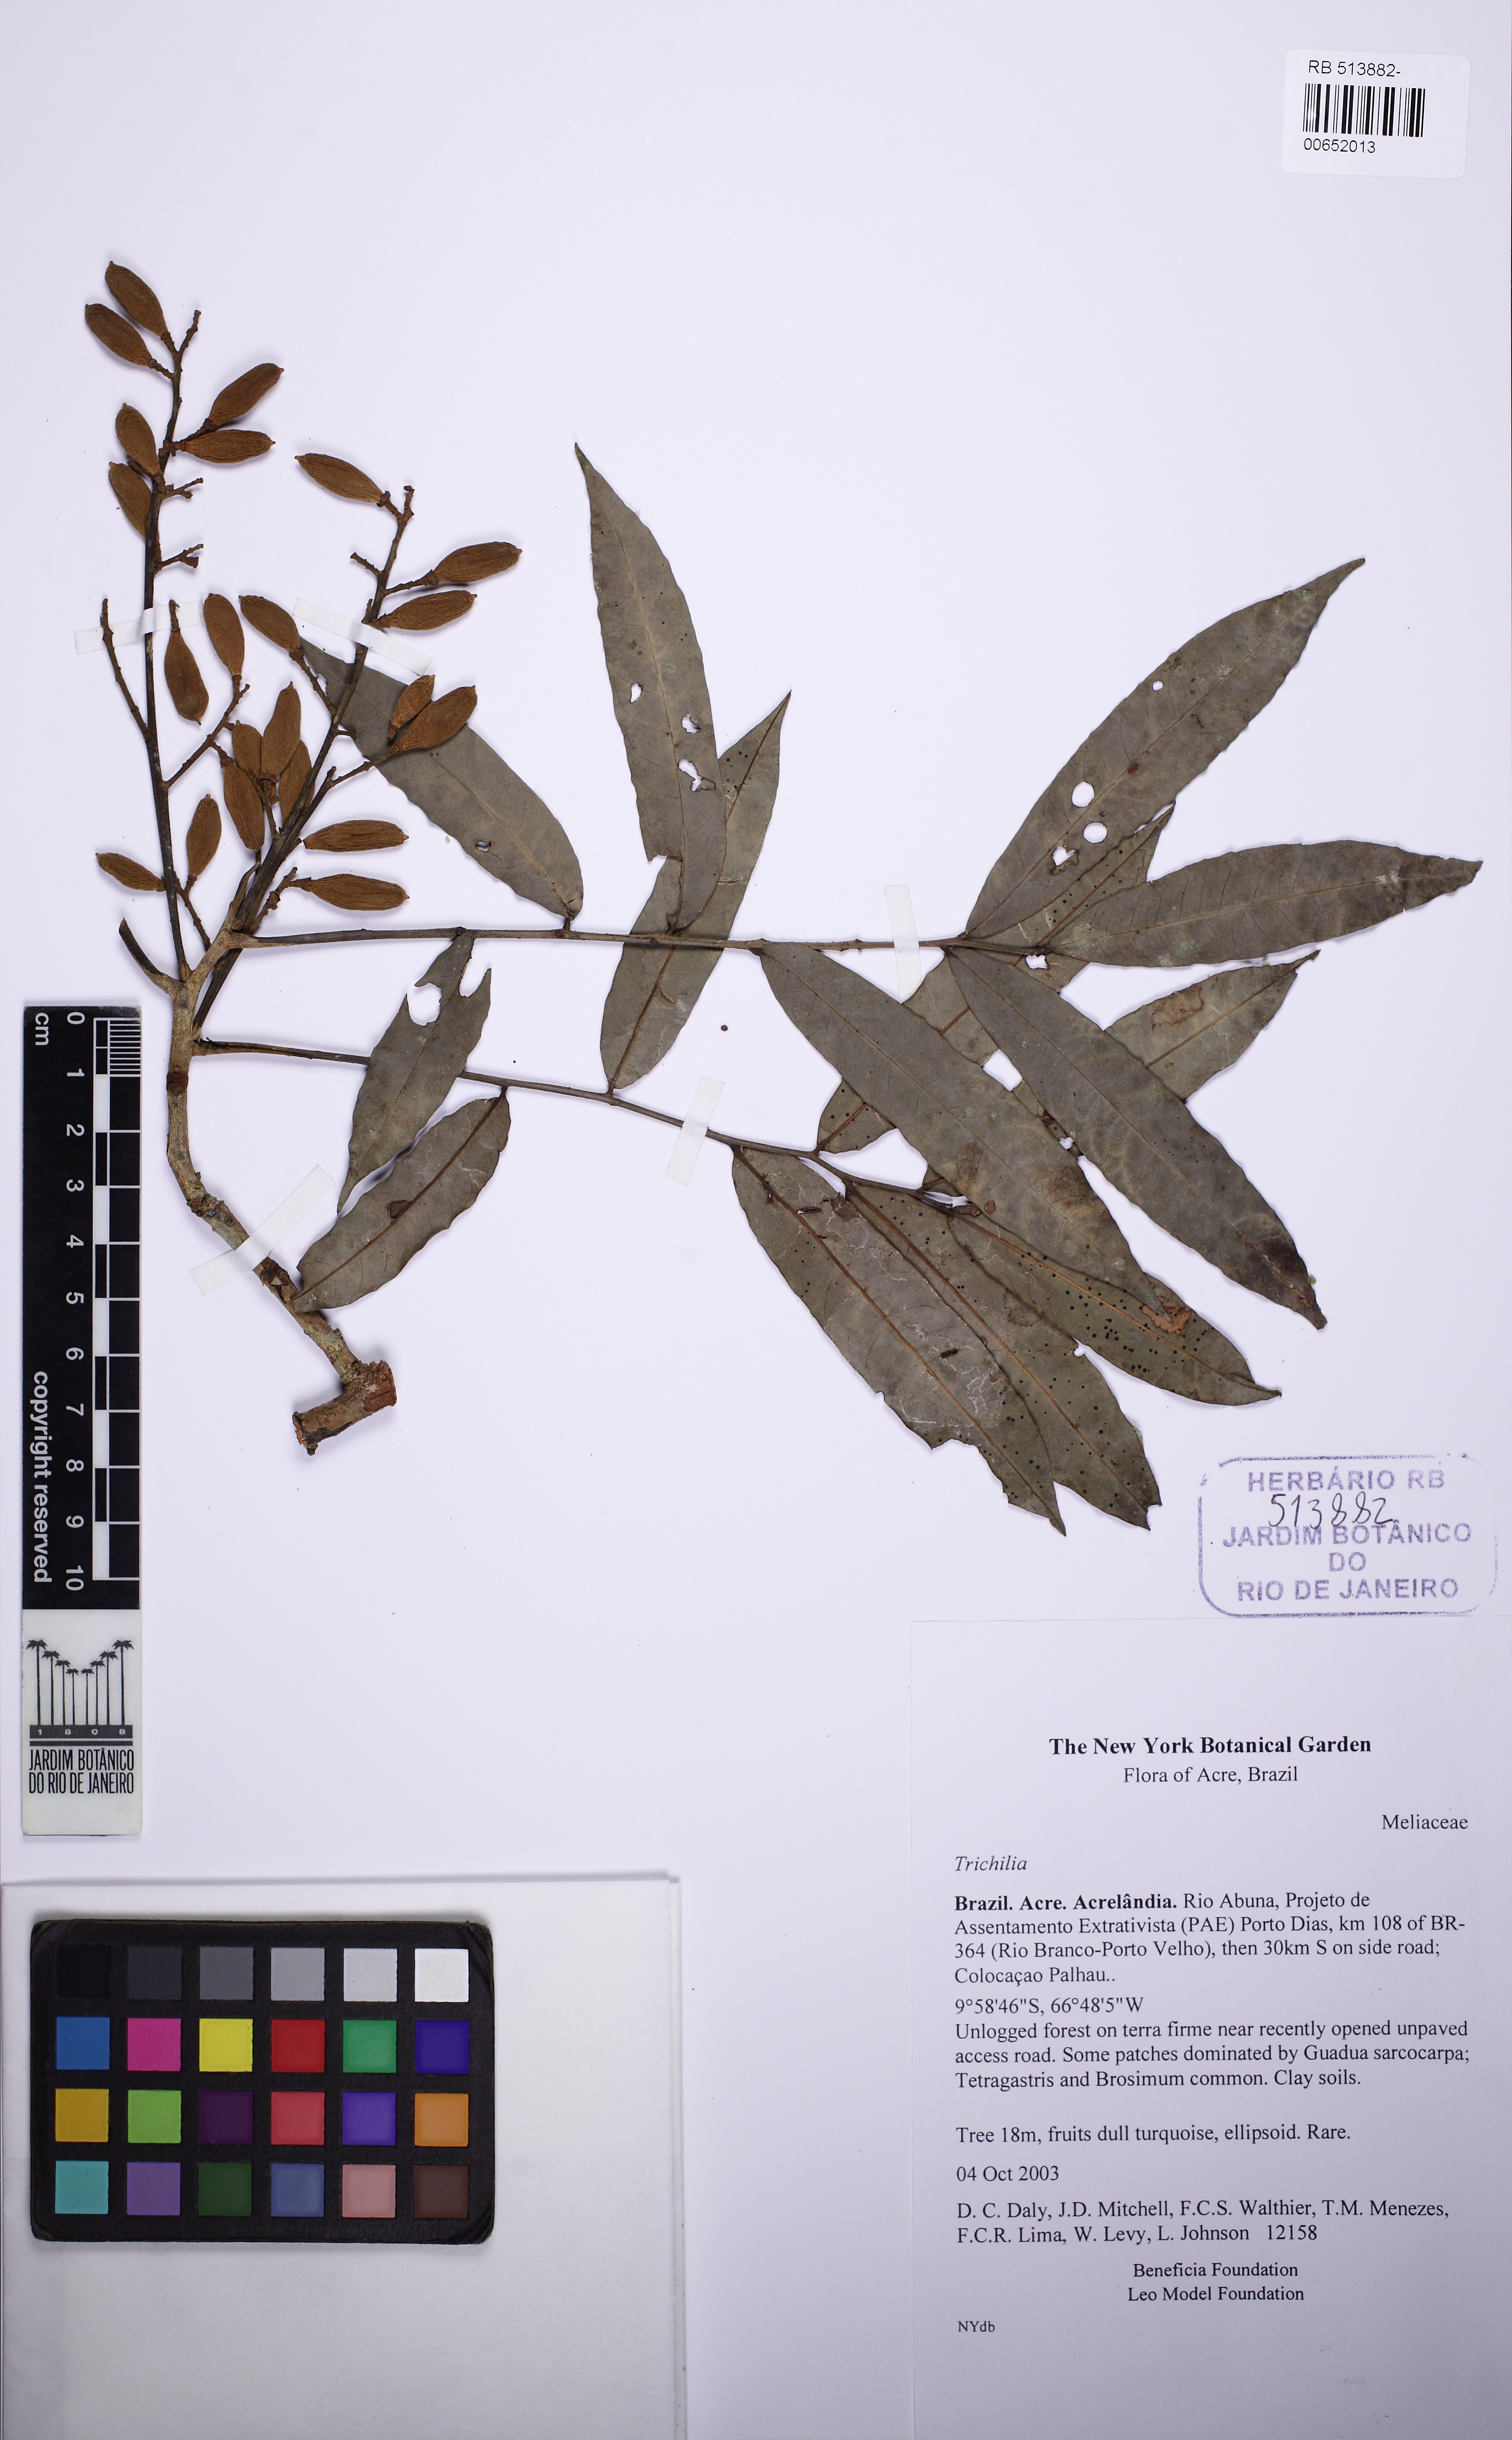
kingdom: Plantae
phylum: Tracheophyta
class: Magnoliopsida
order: Sapindales
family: Meliaceae
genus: Trichilia
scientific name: Trichilia
